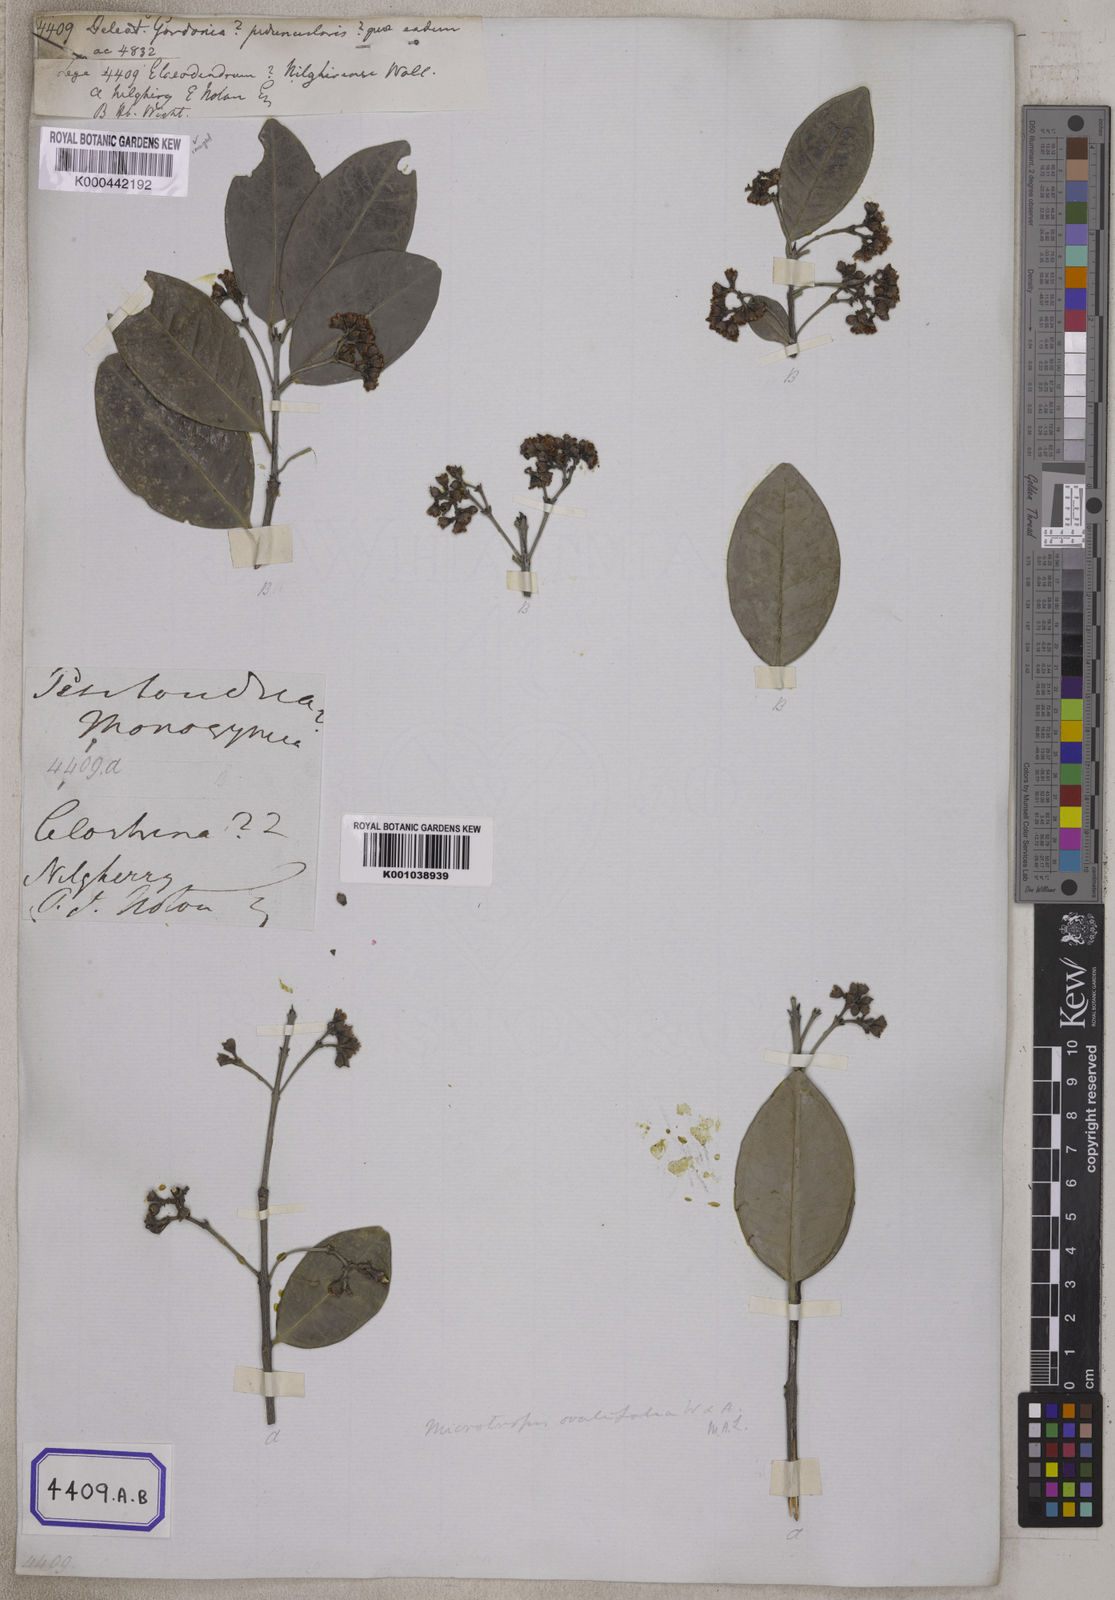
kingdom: Plantae
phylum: Tracheophyta
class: Magnoliopsida
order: Celastrales
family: Celastraceae
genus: Microtropis
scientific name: Microtropis microcarpa
